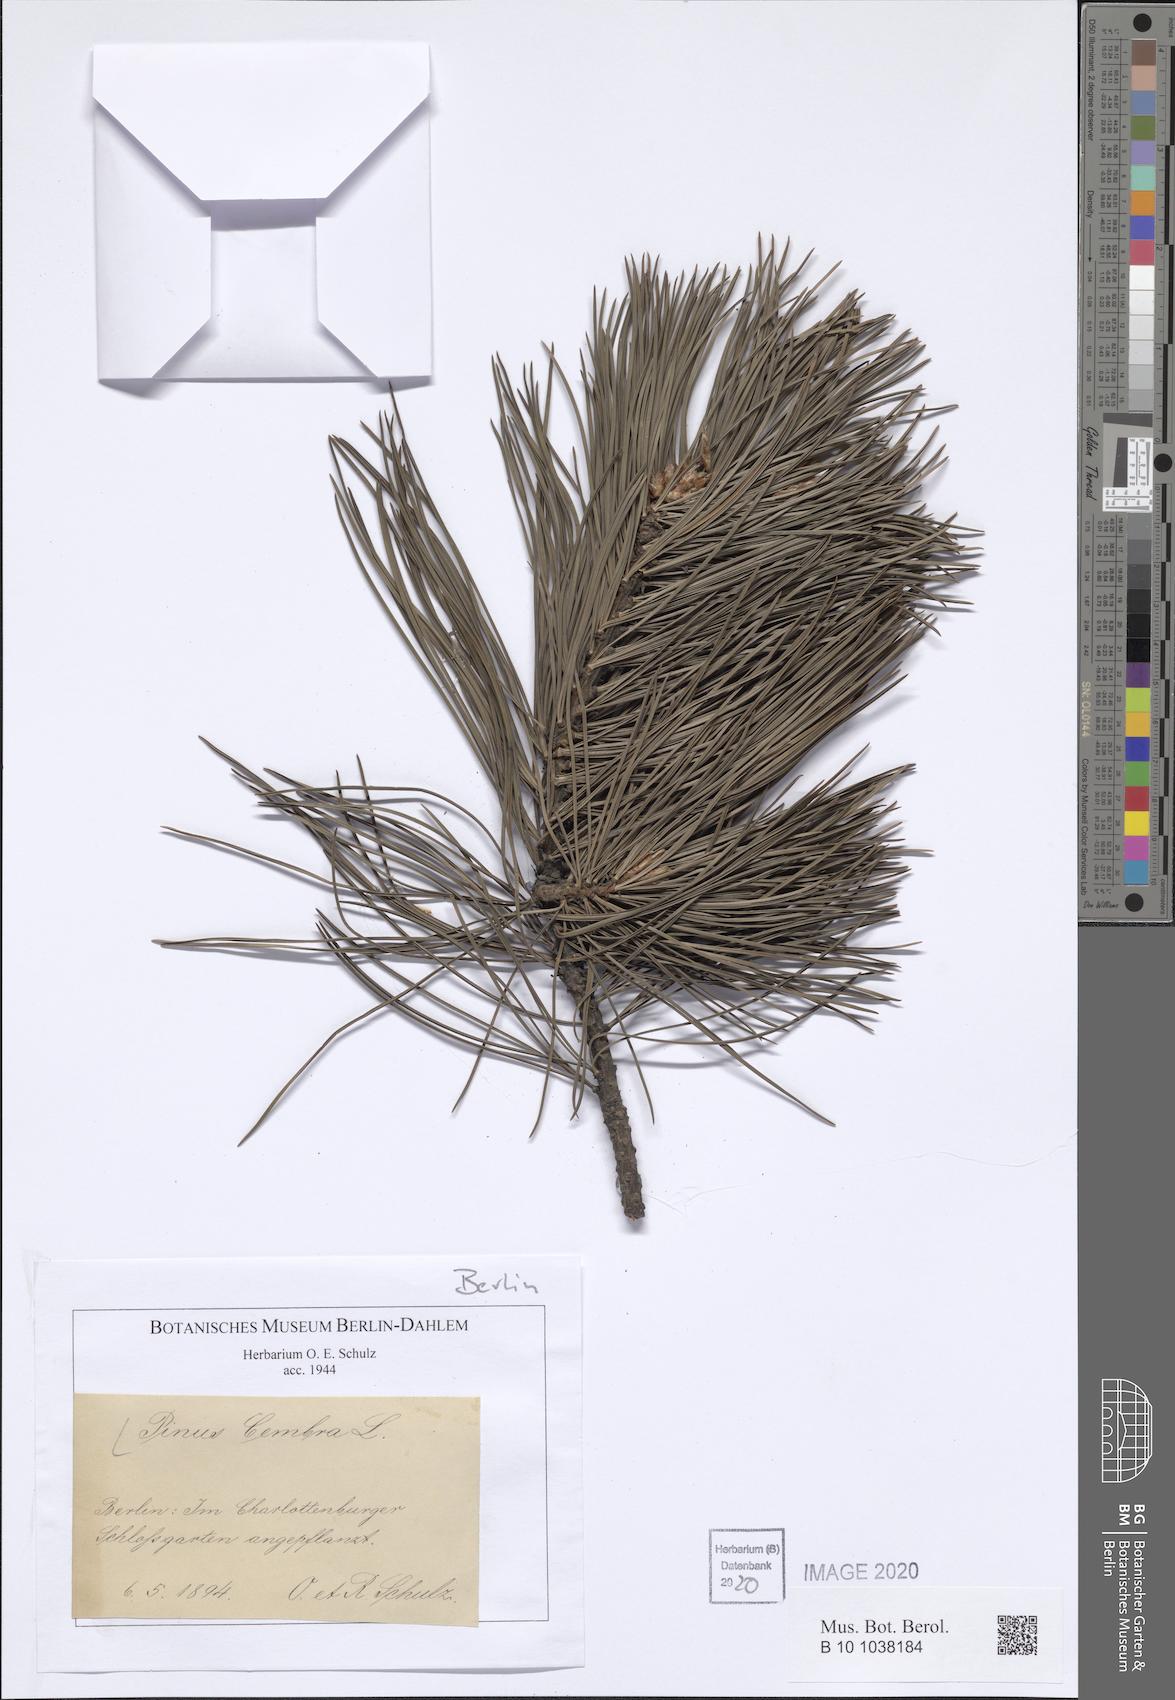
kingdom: Plantae
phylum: Tracheophyta
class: Pinopsida
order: Pinales
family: Pinaceae
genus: Pinus
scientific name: Pinus cembra
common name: Arolla pine
